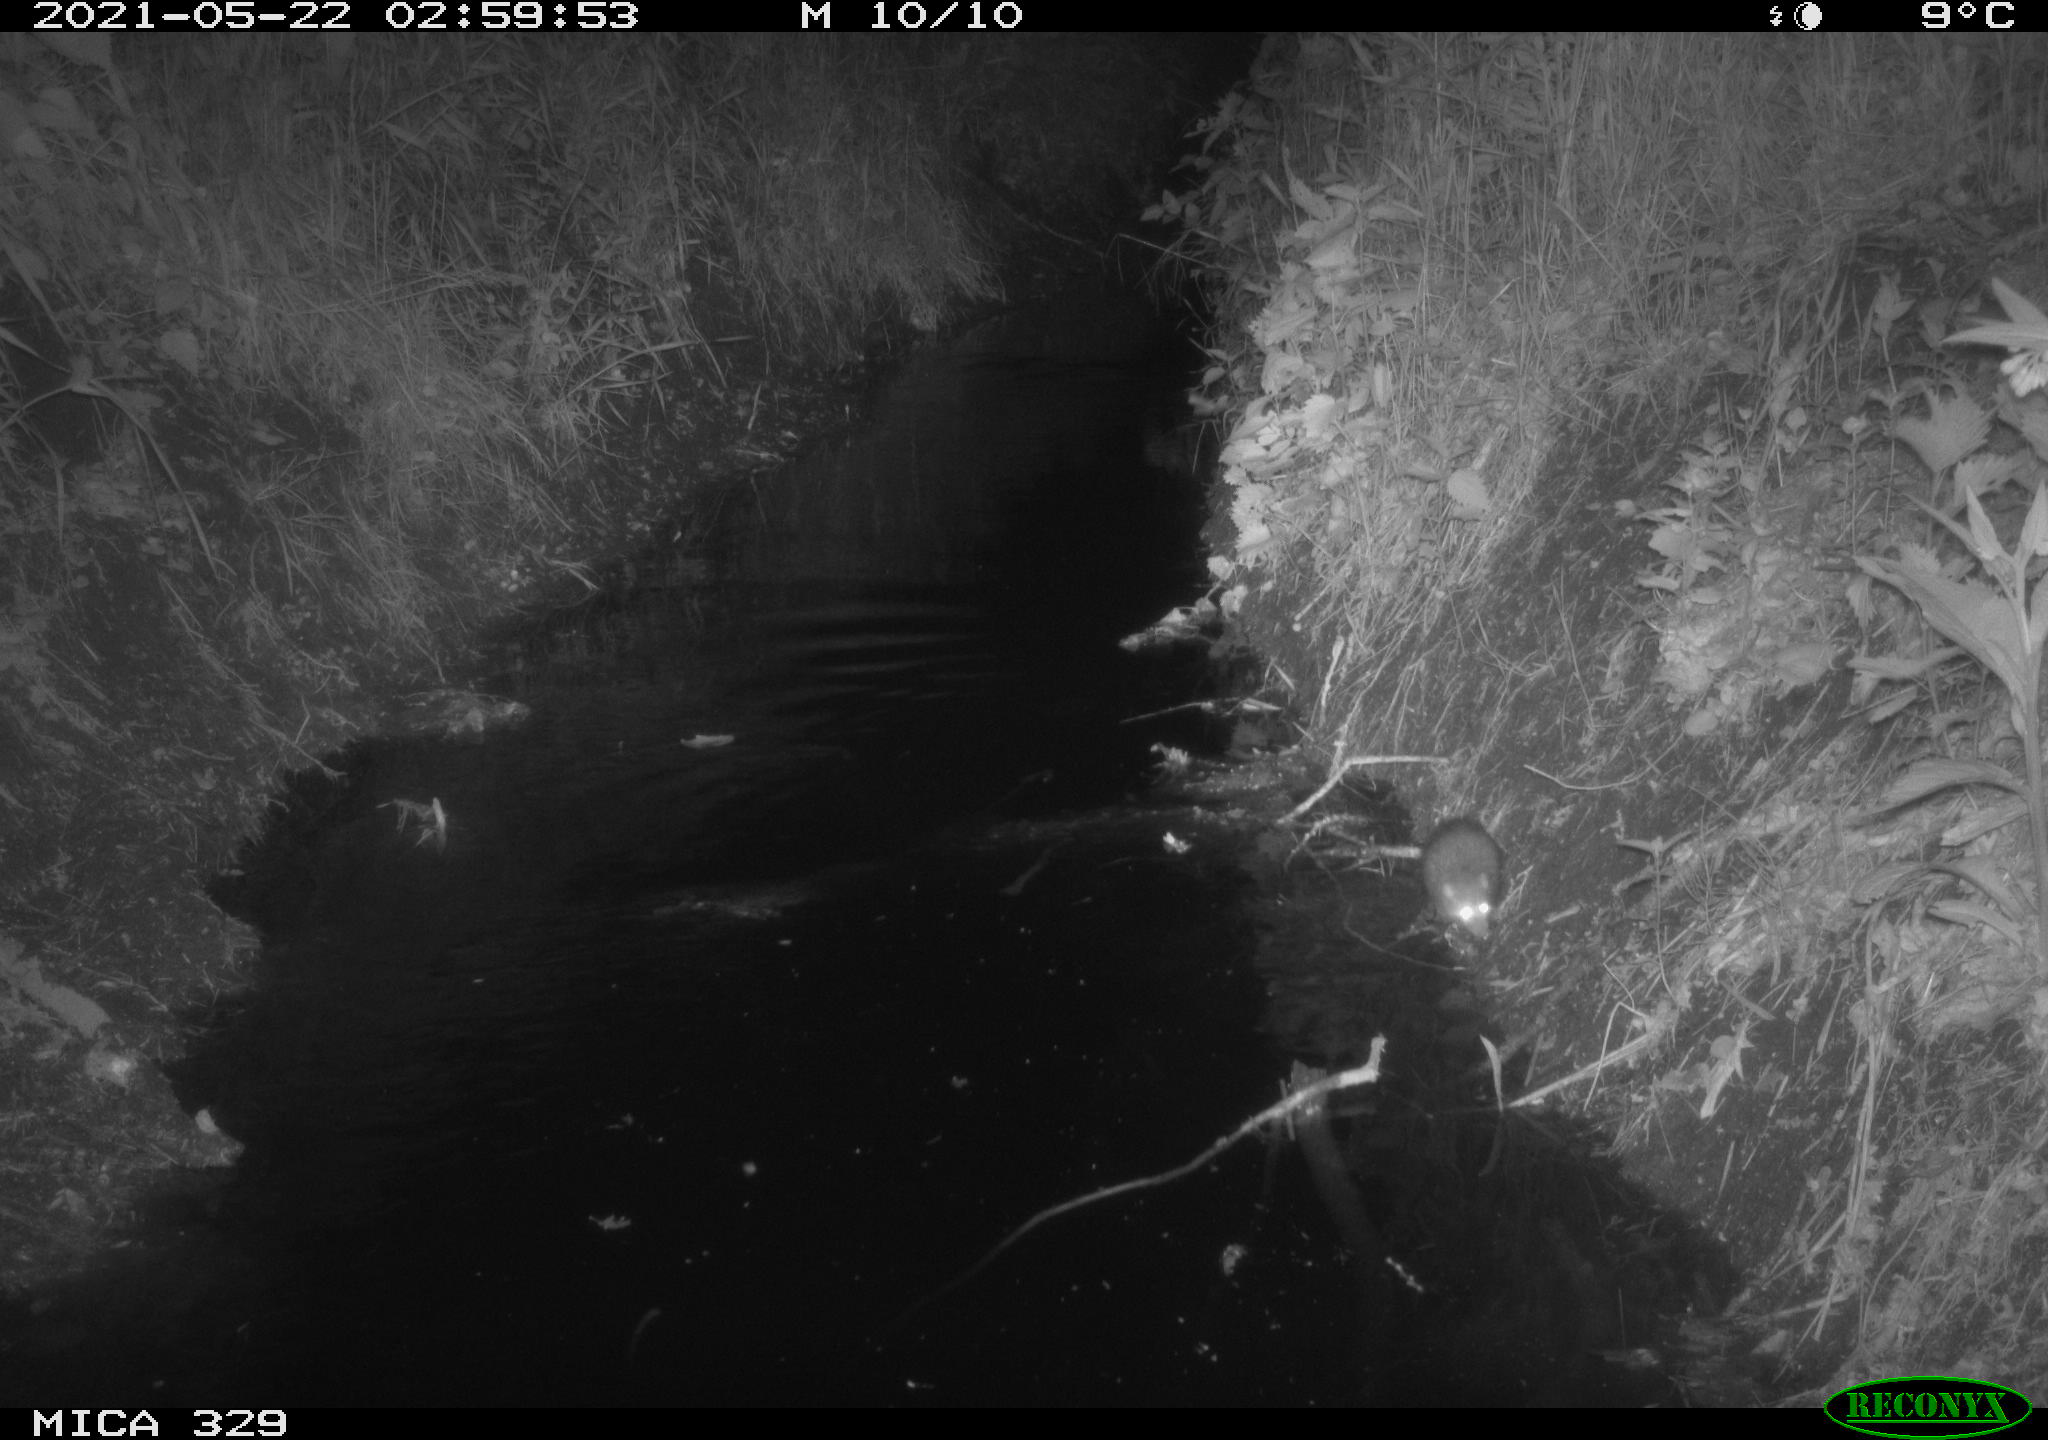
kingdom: Animalia
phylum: Chordata
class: Mammalia
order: Rodentia
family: Muridae
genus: Rattus
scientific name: Rattus norvegicus
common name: Brown rat
